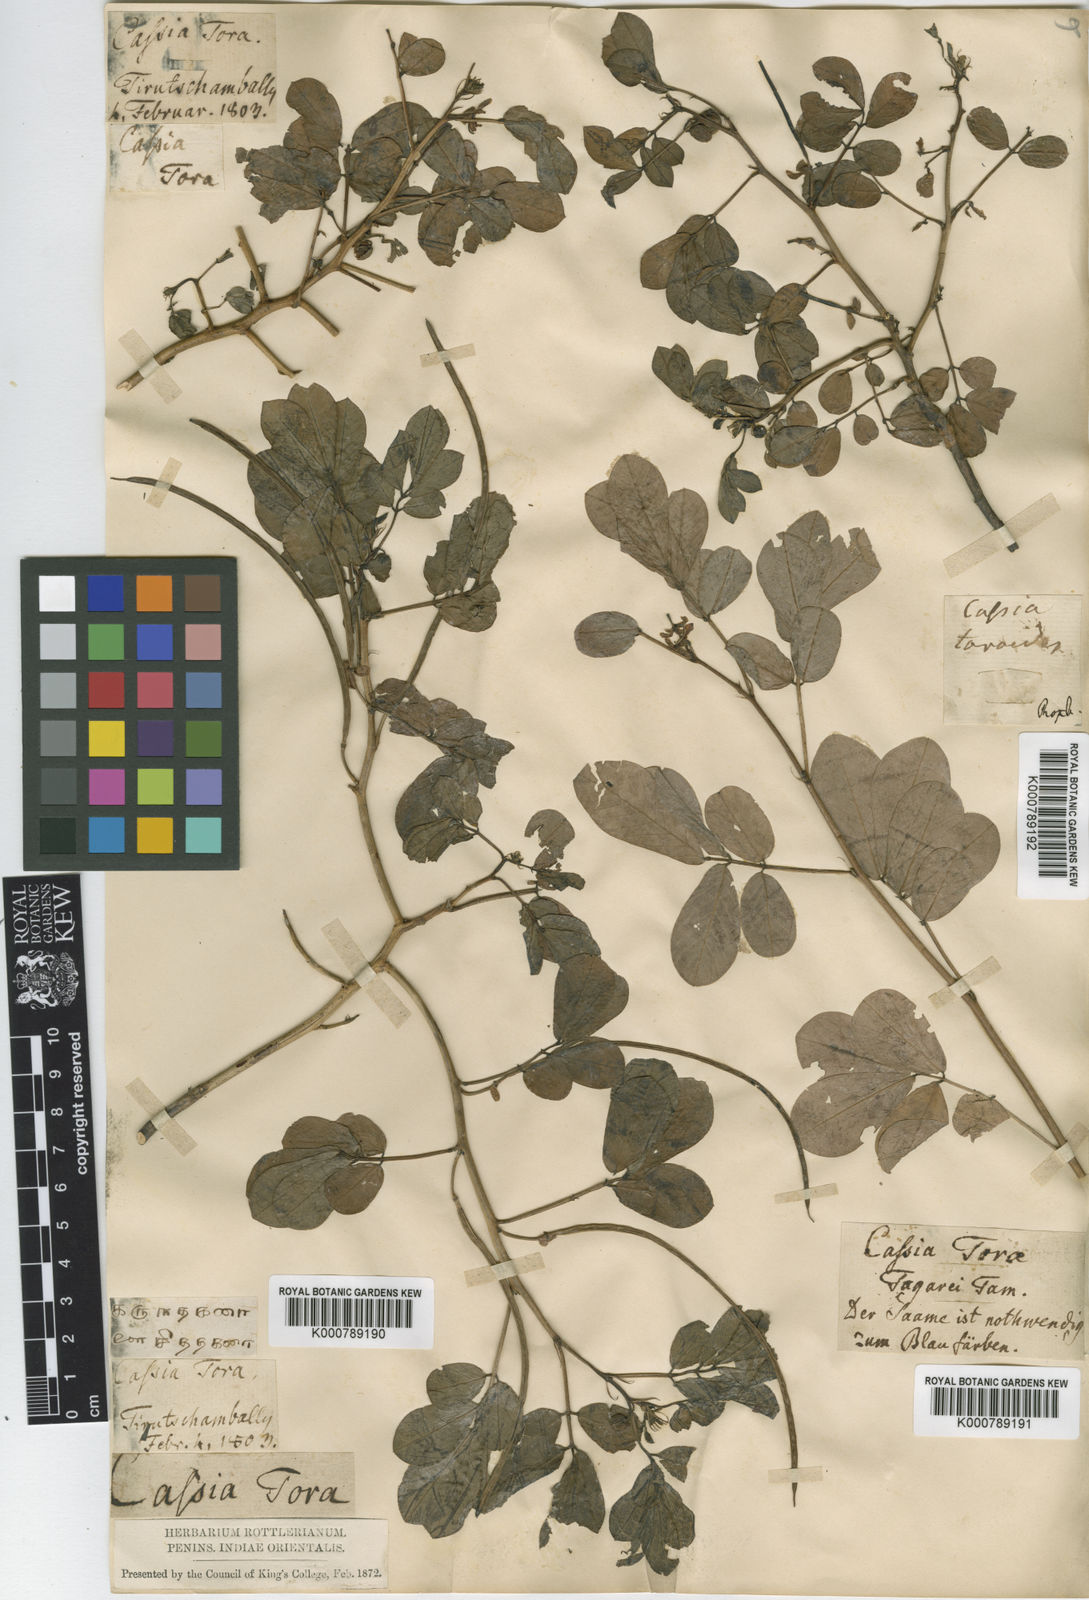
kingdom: Plantae
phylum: Tracheophyta
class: Magnoliopsida
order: Fabales
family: Fabaceae
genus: Senna
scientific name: Senna tora
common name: Sickle senna
